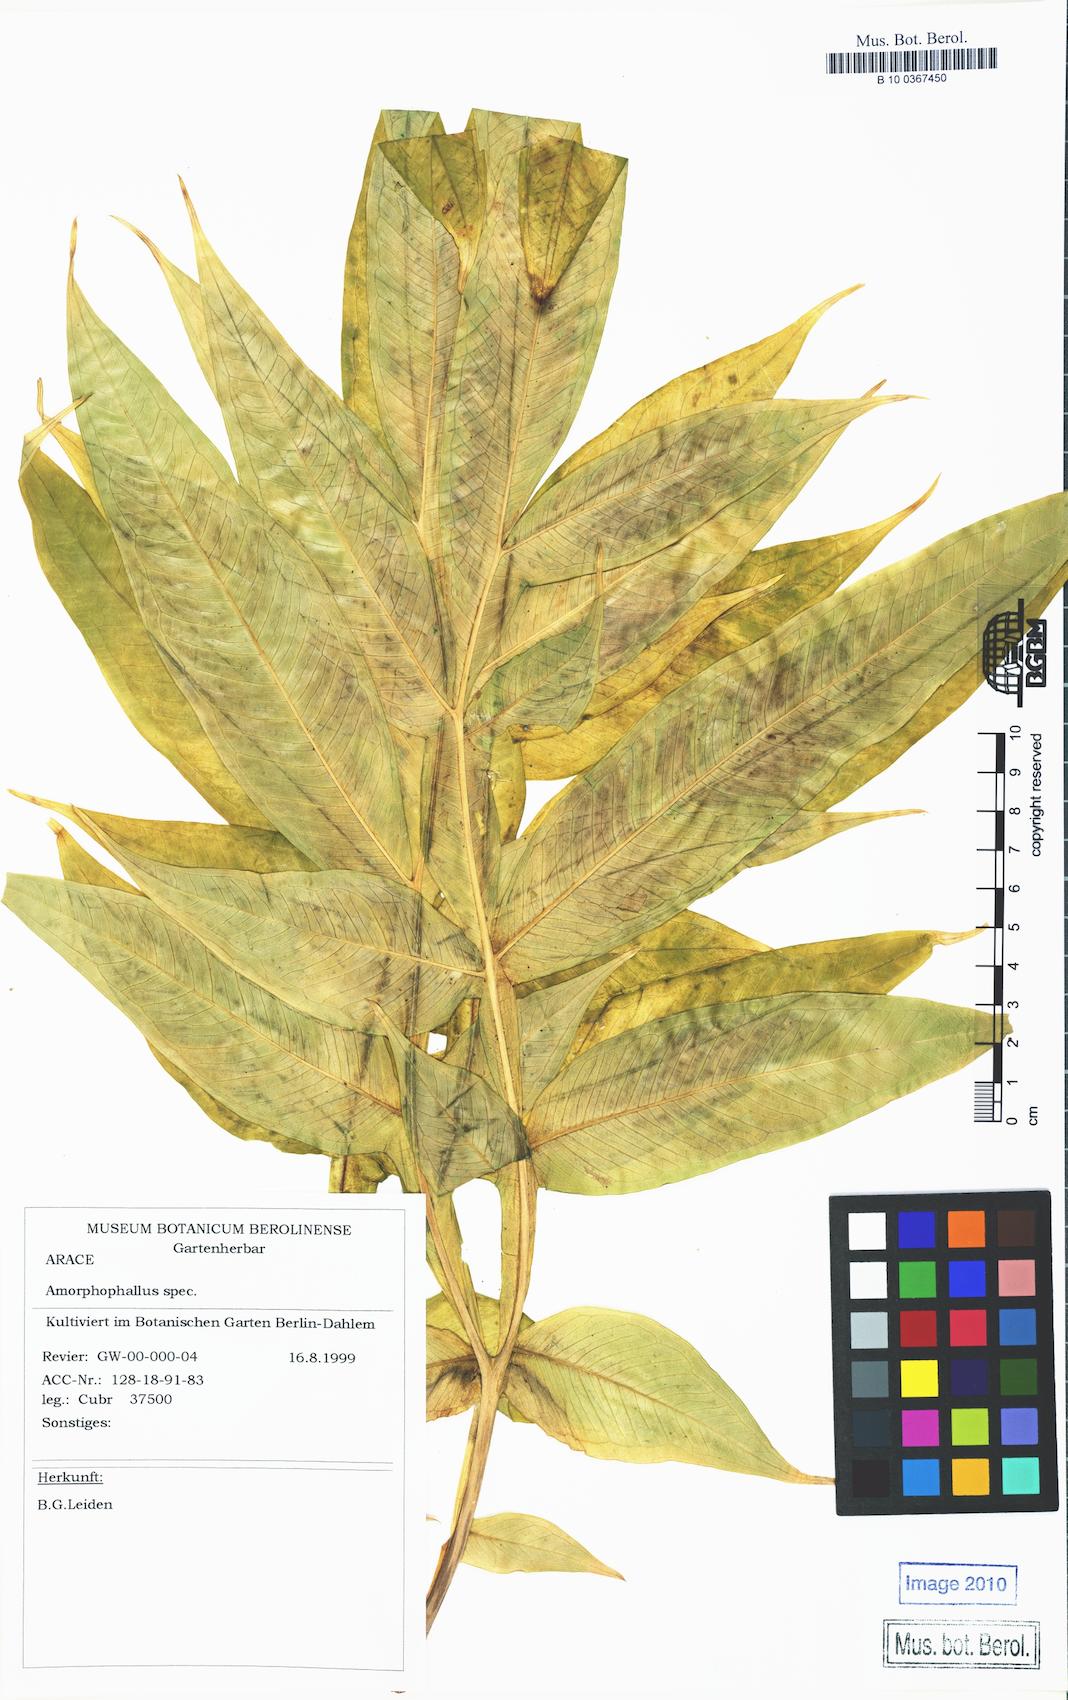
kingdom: Plantae
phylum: Tracheophyta
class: Liliopsida
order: Alismatales
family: Araceae
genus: Amorphophallus
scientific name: Amorphophallus krausei
